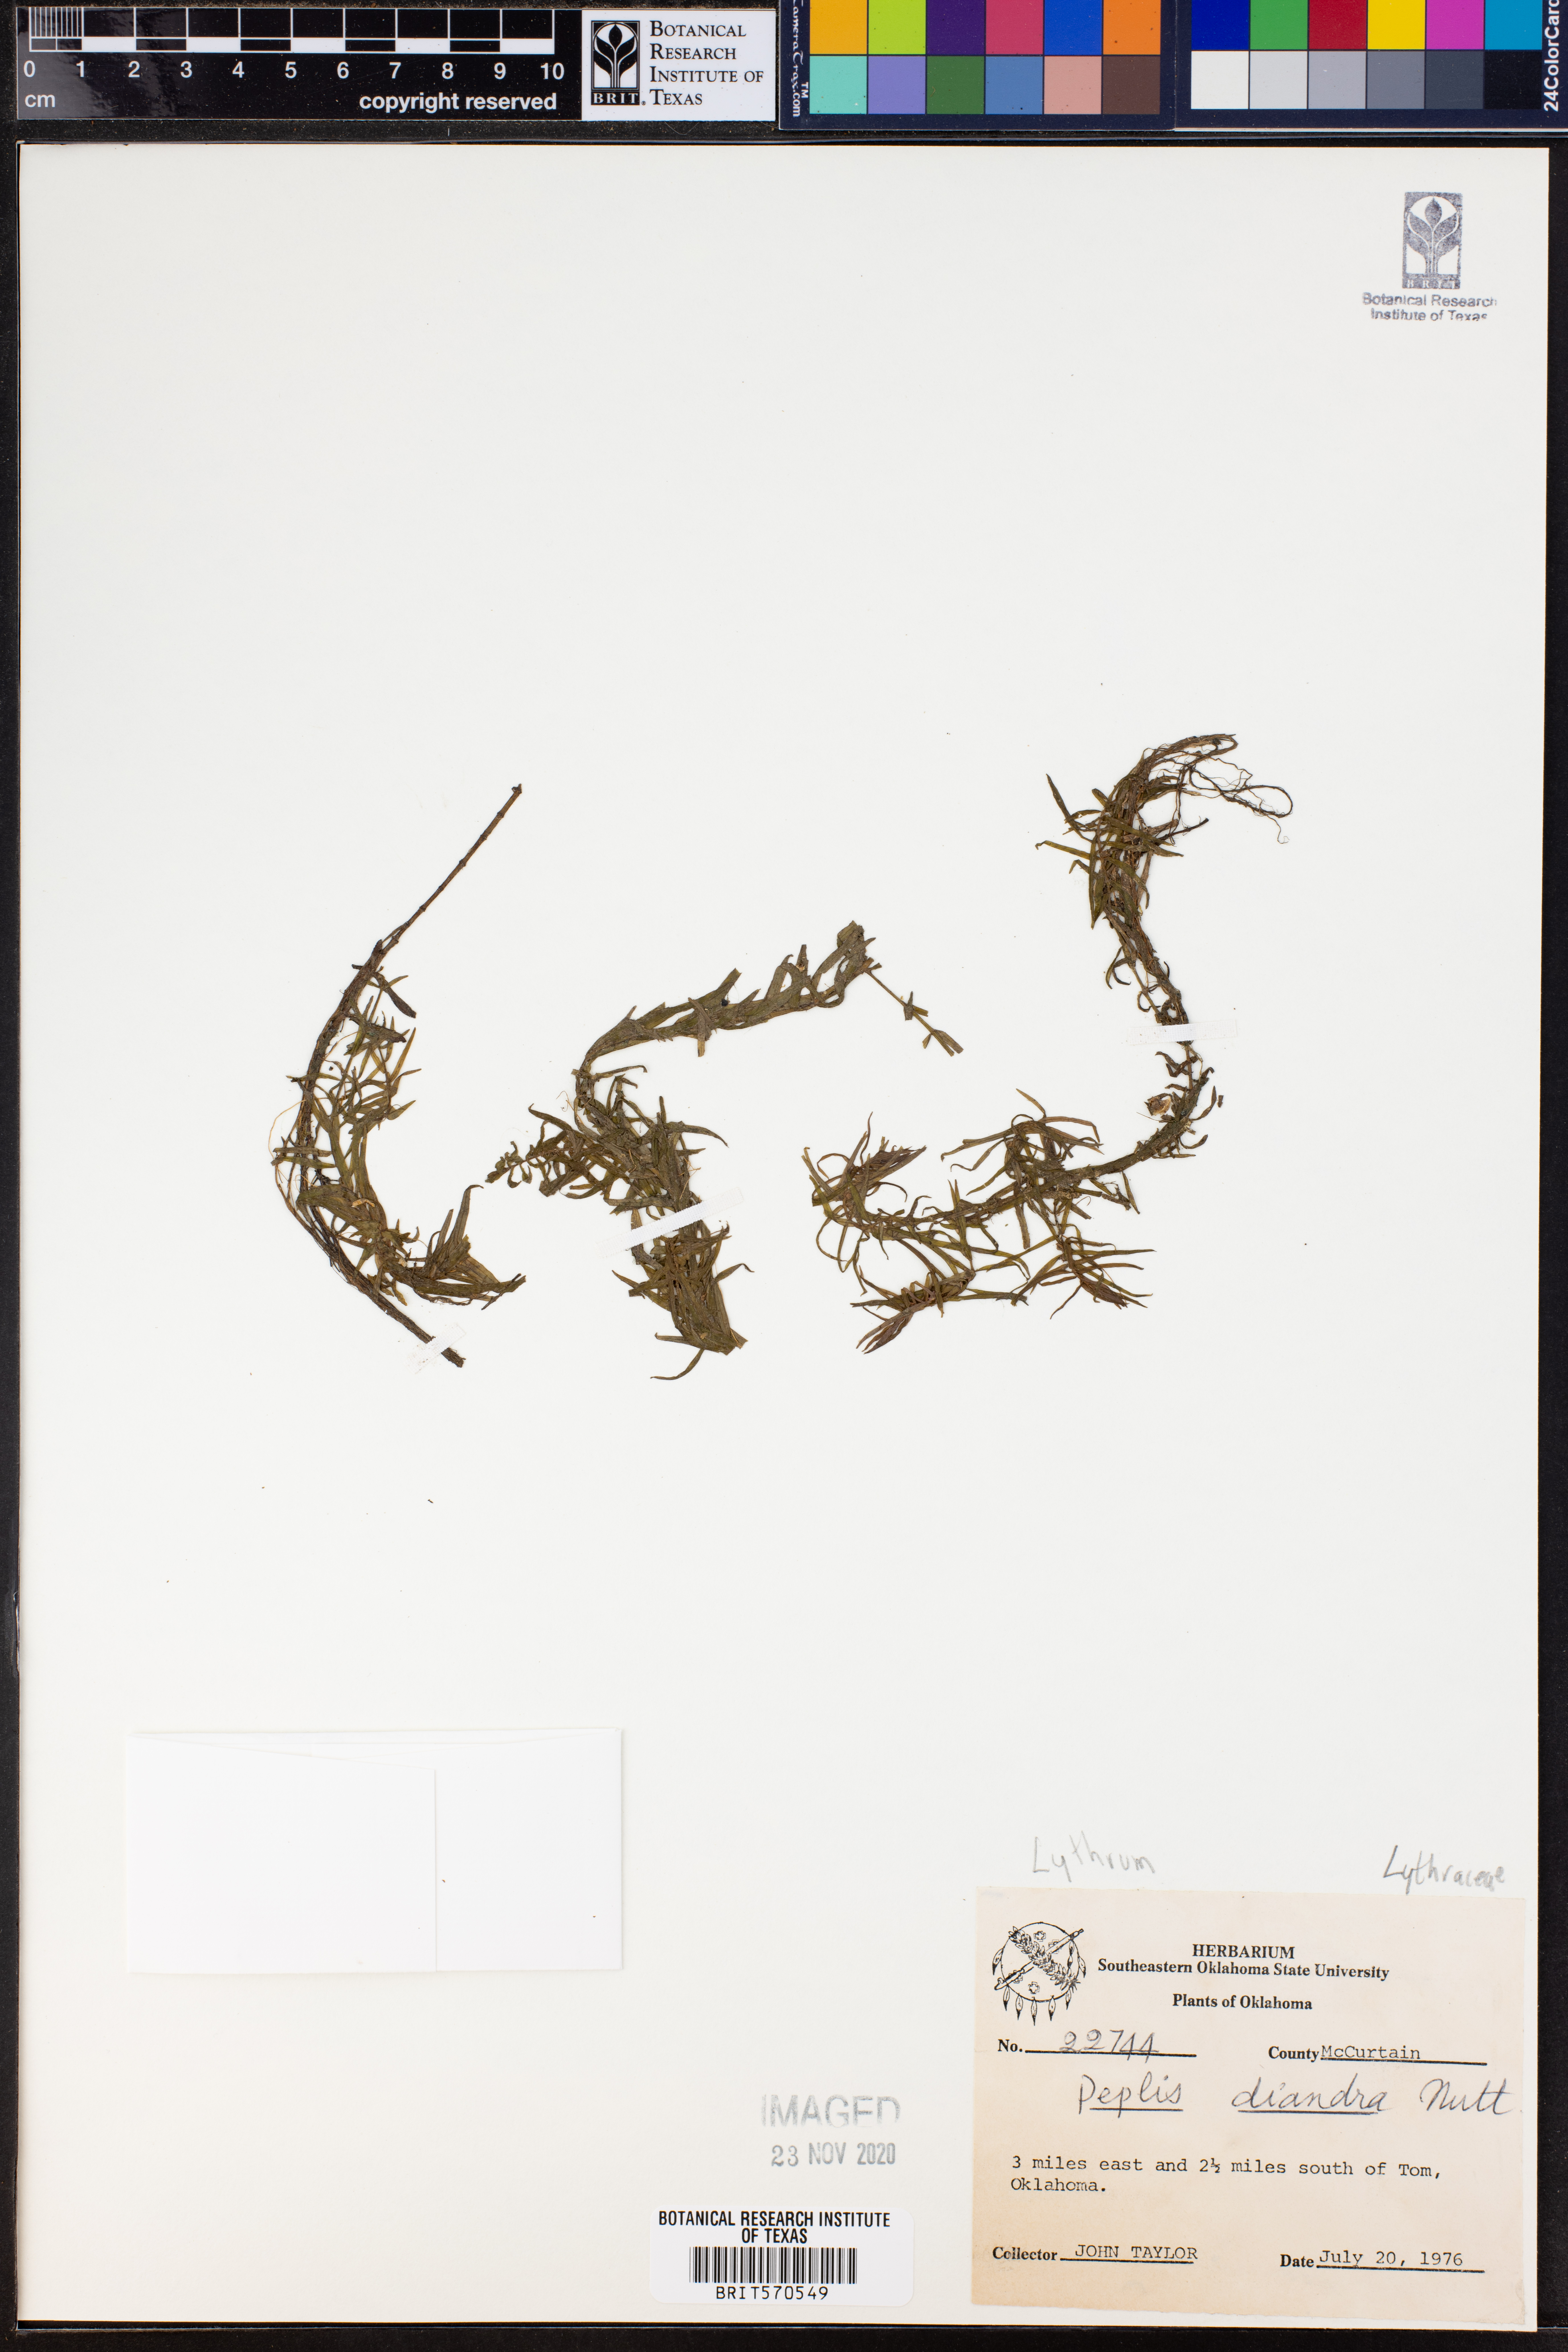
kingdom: Plantae
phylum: Tracheophyta
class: Magnoliopsida
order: Myrtales
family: Lythraceae
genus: Didiplis
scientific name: Didiplis diandra
